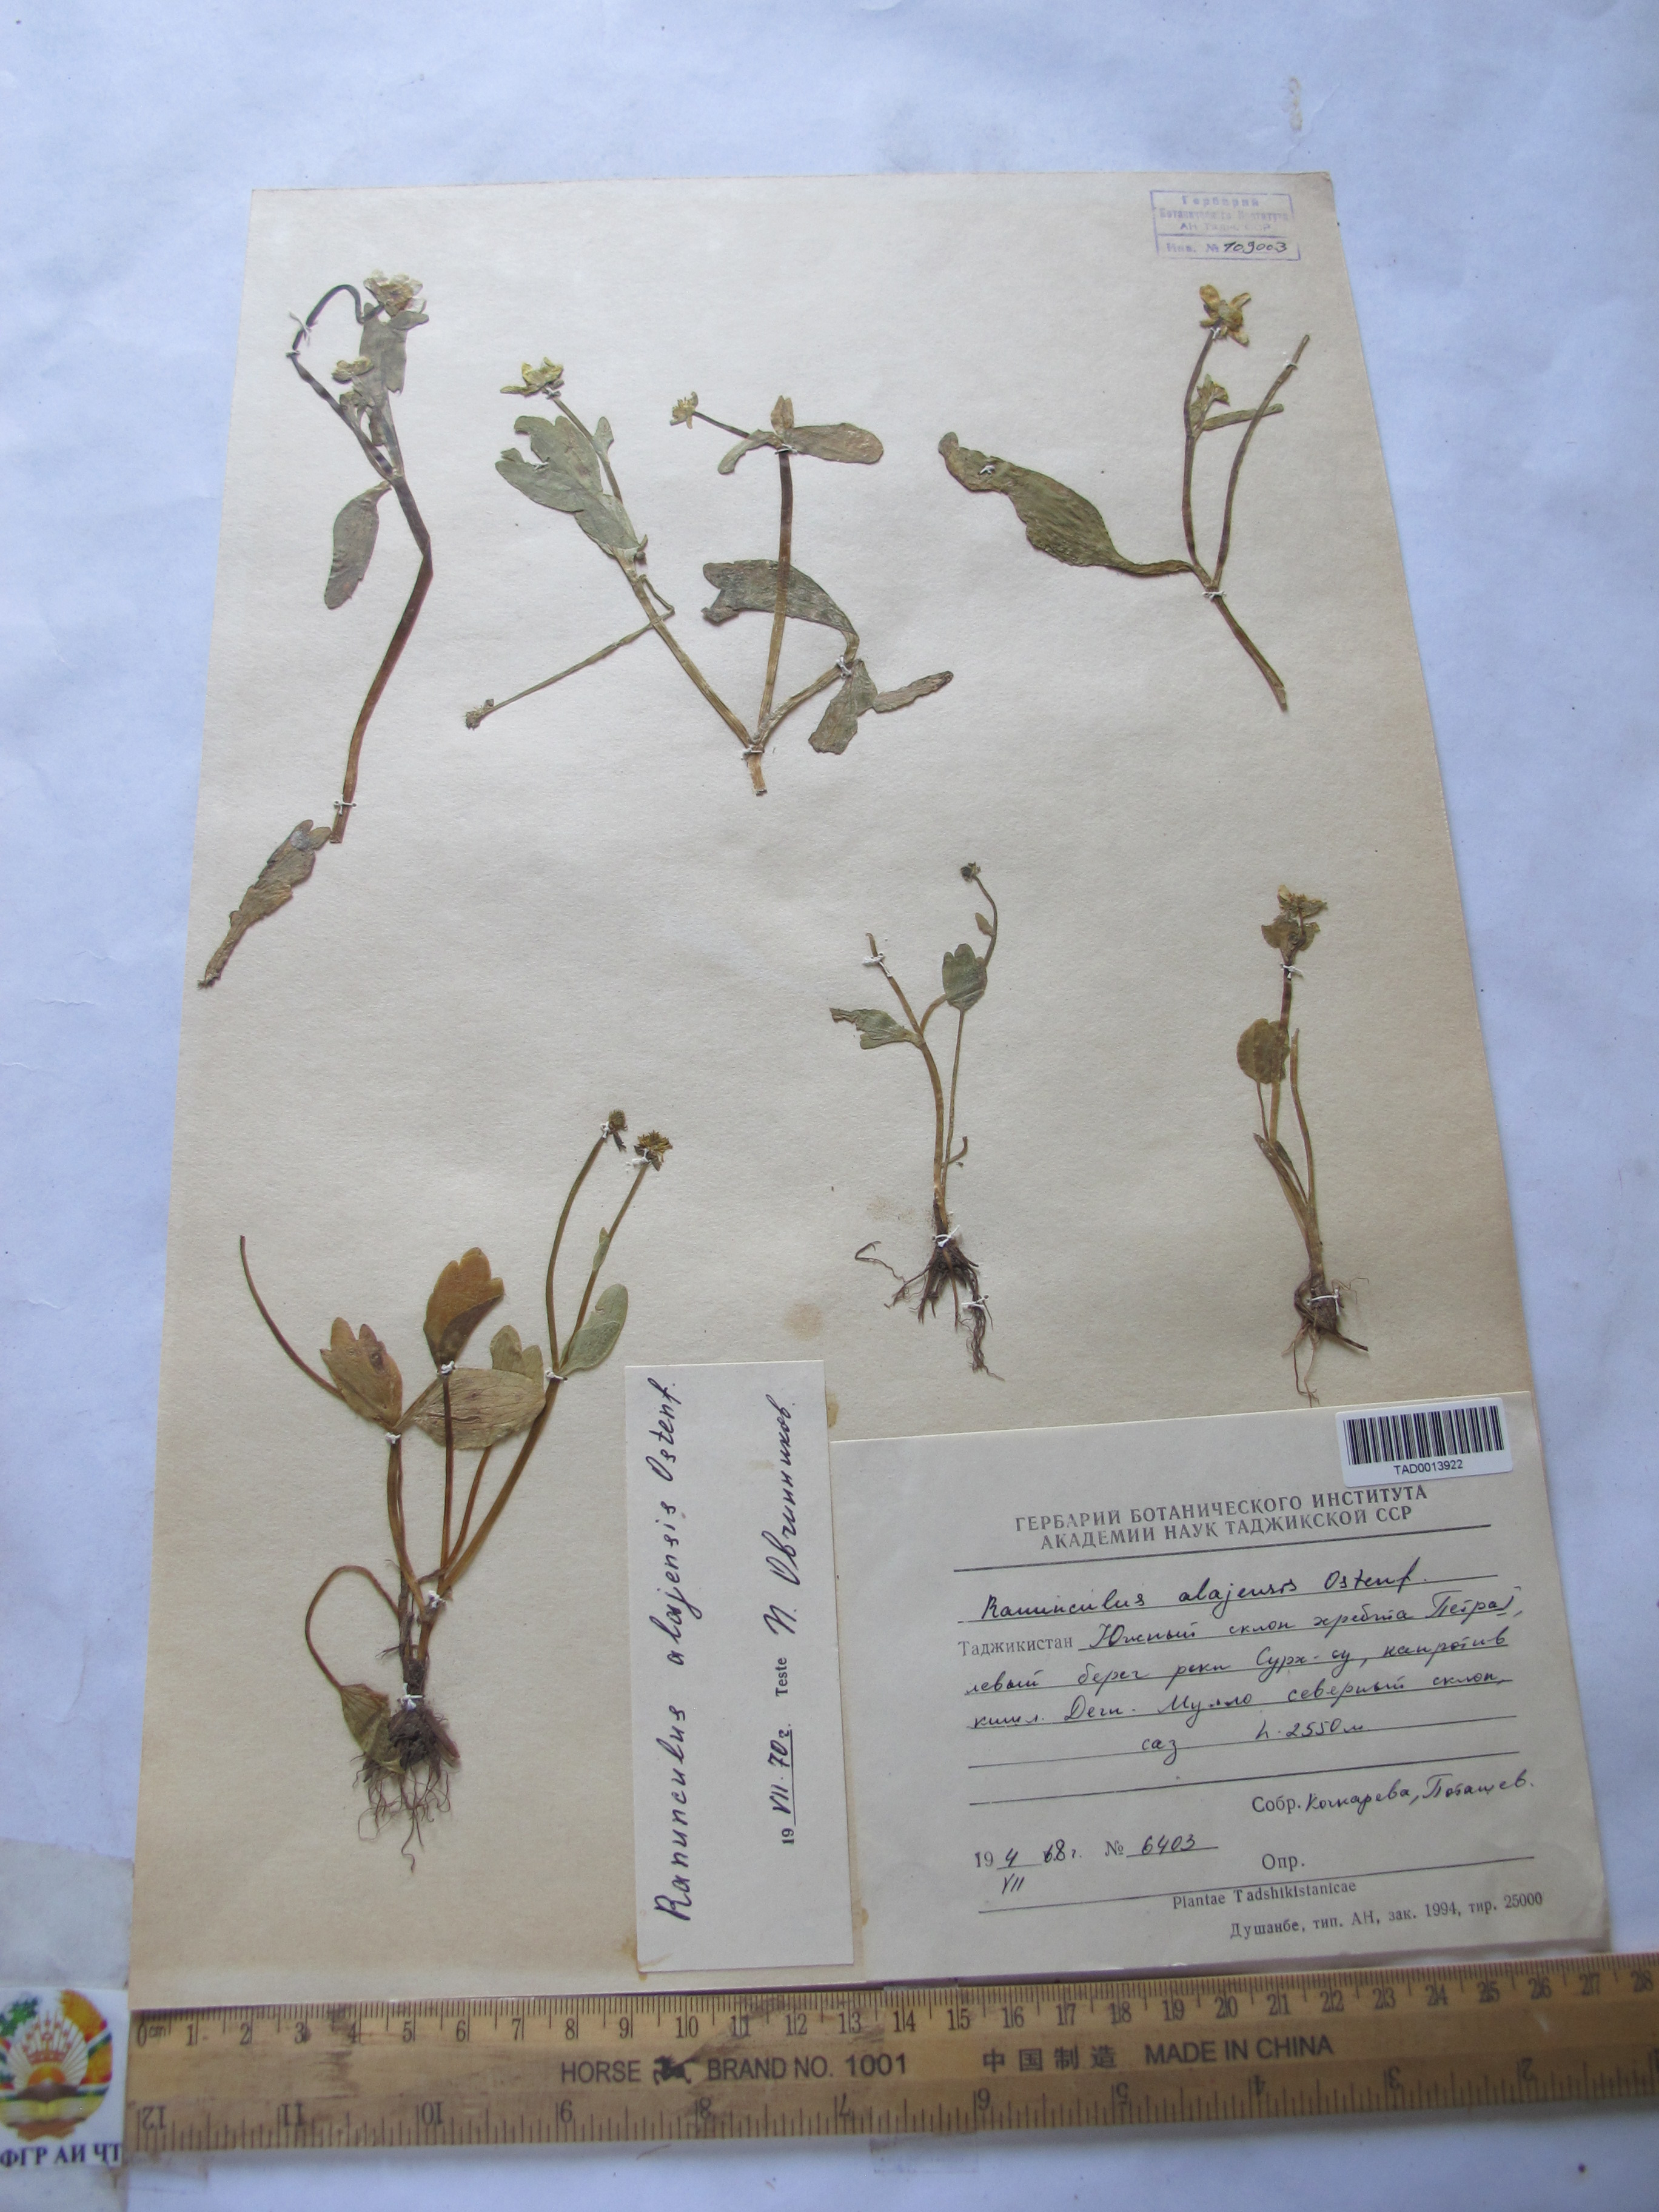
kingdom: Plantae
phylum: Tracheophyta
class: Magnoliopsida
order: Ranunculales
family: Ranunculaceae
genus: Ranunculus
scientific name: Ranunculus alaiensis
